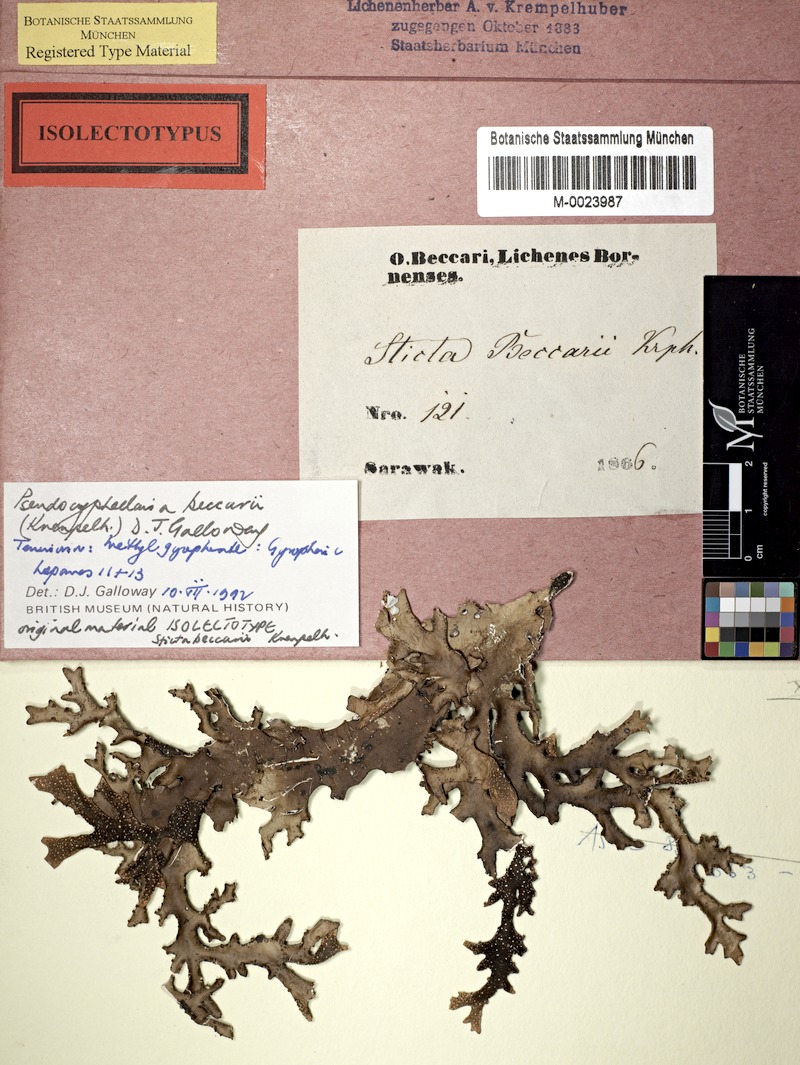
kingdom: Fungi
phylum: Ascomycota
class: Lecanoromycetes
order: Peltigerales
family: Lobariaceae
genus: Pseudocyphellaria
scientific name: Pseudocyphellaria beccarii
